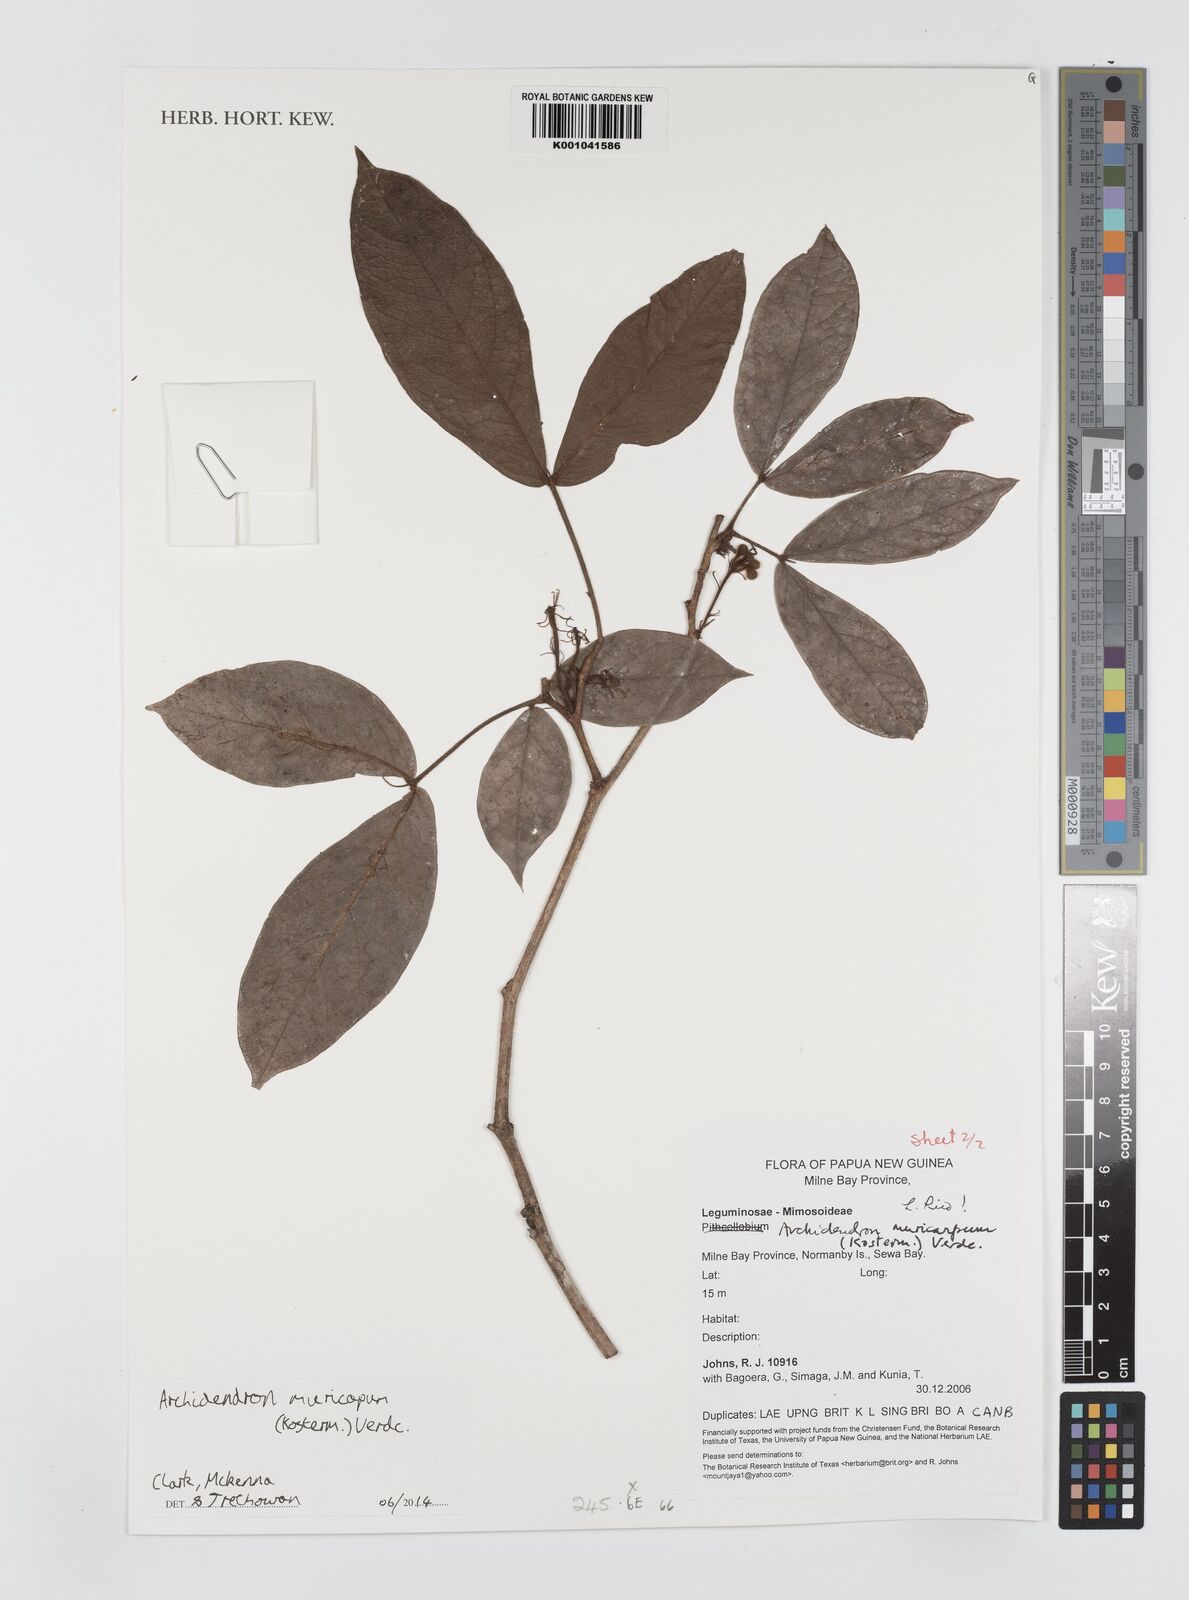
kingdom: Plantae
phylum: Tracheophyta
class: Magnoliopsida
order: Fabales
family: Fabaceae
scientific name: Fabaceae
